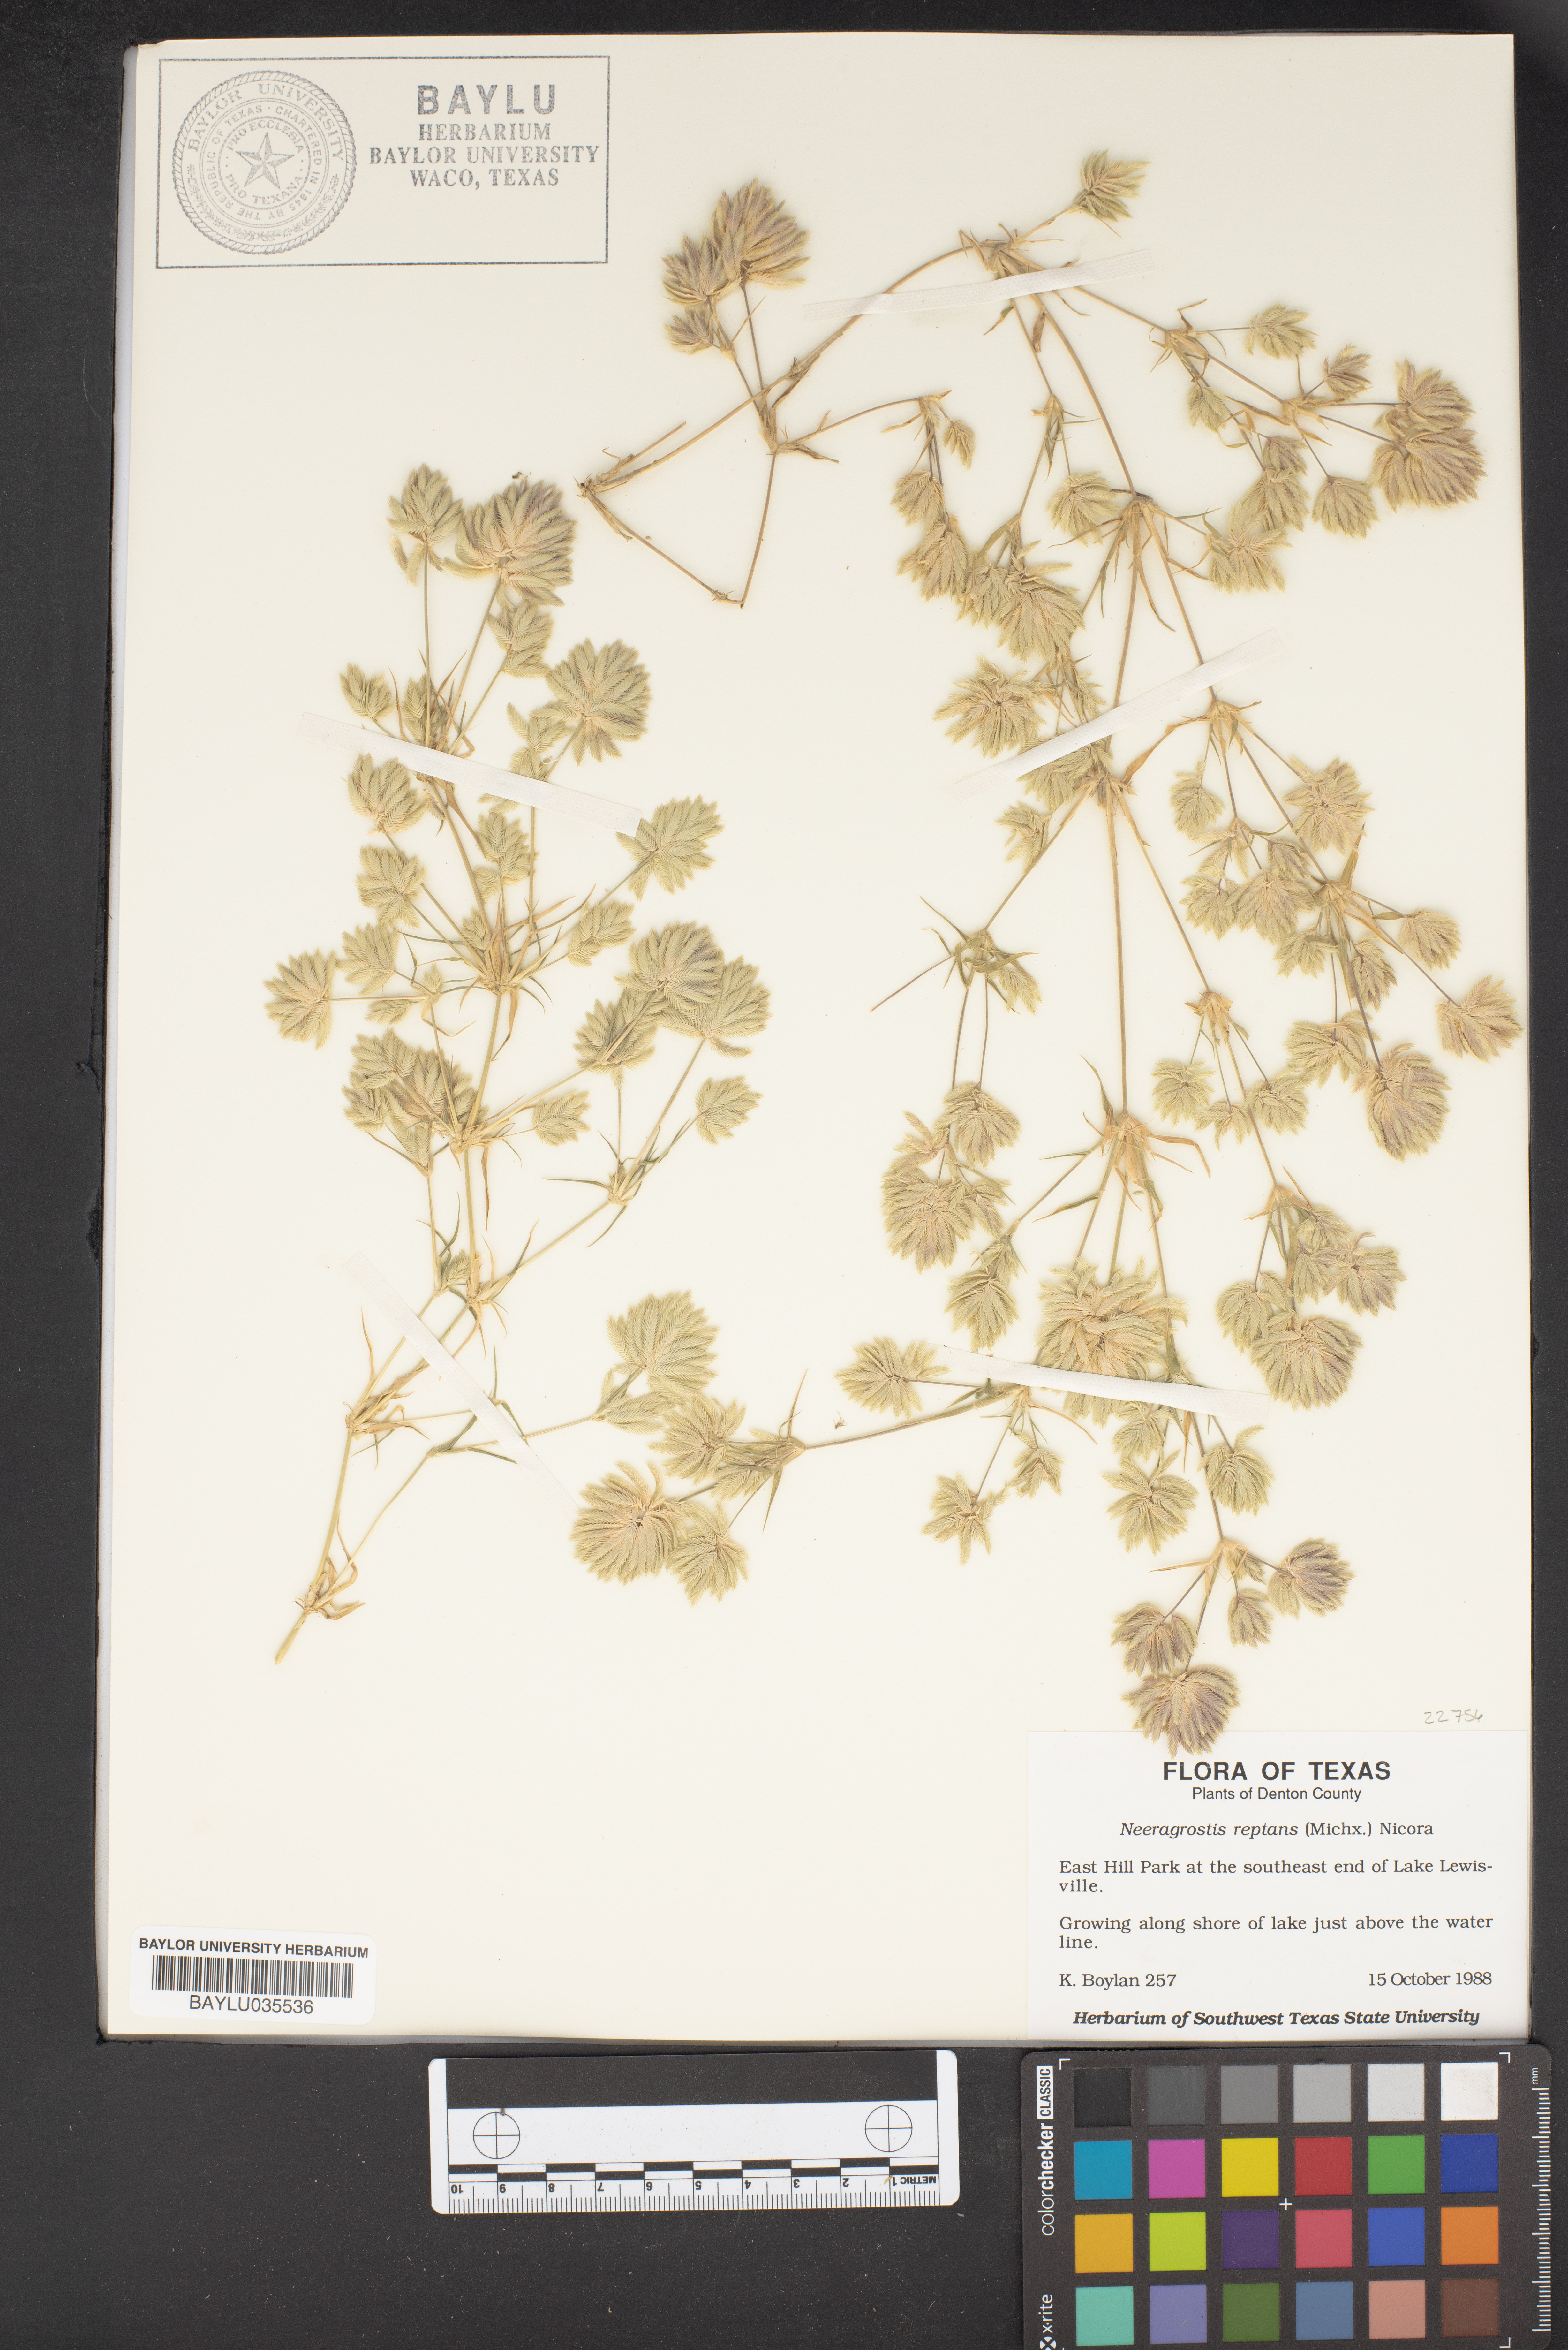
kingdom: Plantae
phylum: Tracheophyta
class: Liliopsida
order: Poales
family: Poaceae
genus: Eragrostis
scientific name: Eragrostis reptans
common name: Creeping love grass
